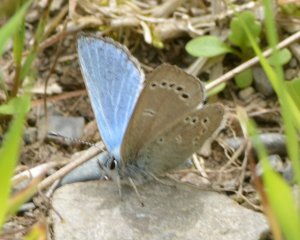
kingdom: Animalia
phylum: Arthropoda
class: Insecta
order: Lepidoptera
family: Lycaenidae
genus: Glaucopsyche
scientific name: Glaucopsyche lygdamus
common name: Silvery Blue
